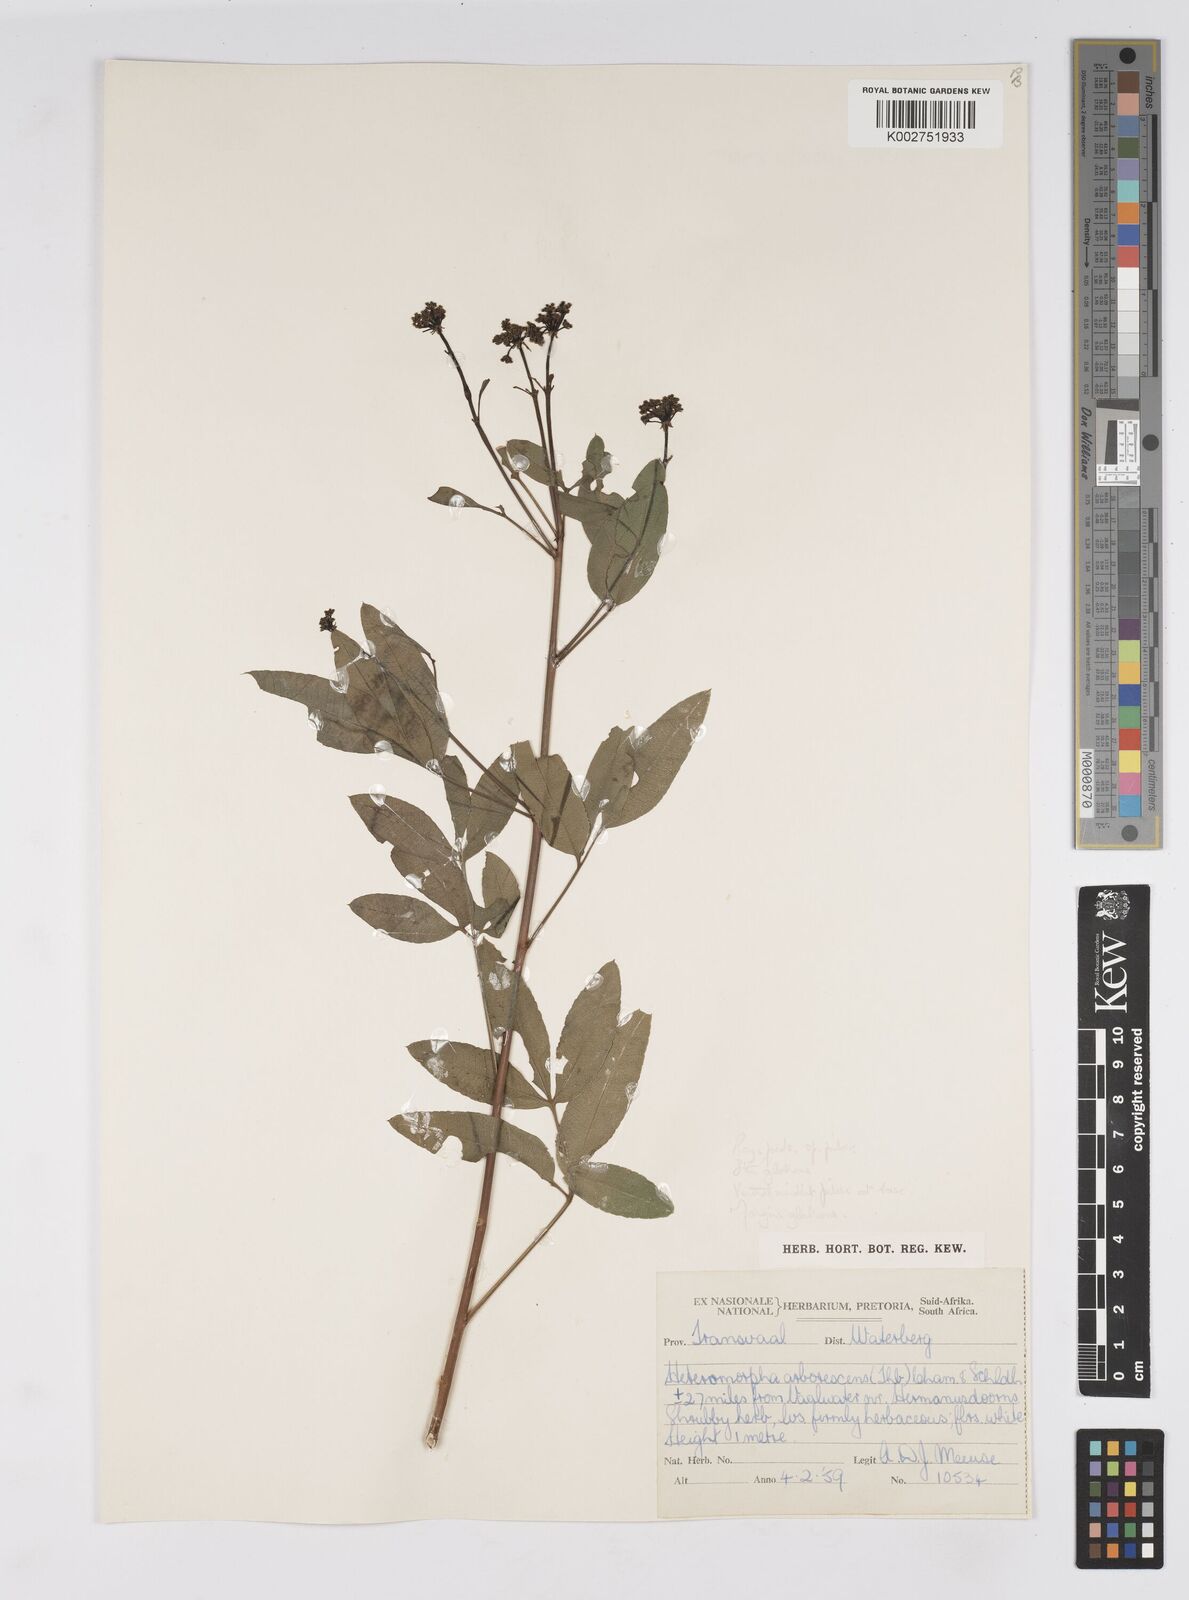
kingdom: Plantae
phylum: Tracheophyta
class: Magnoliopsida
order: Apiales
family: Apiaceae
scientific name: Apiaceae
